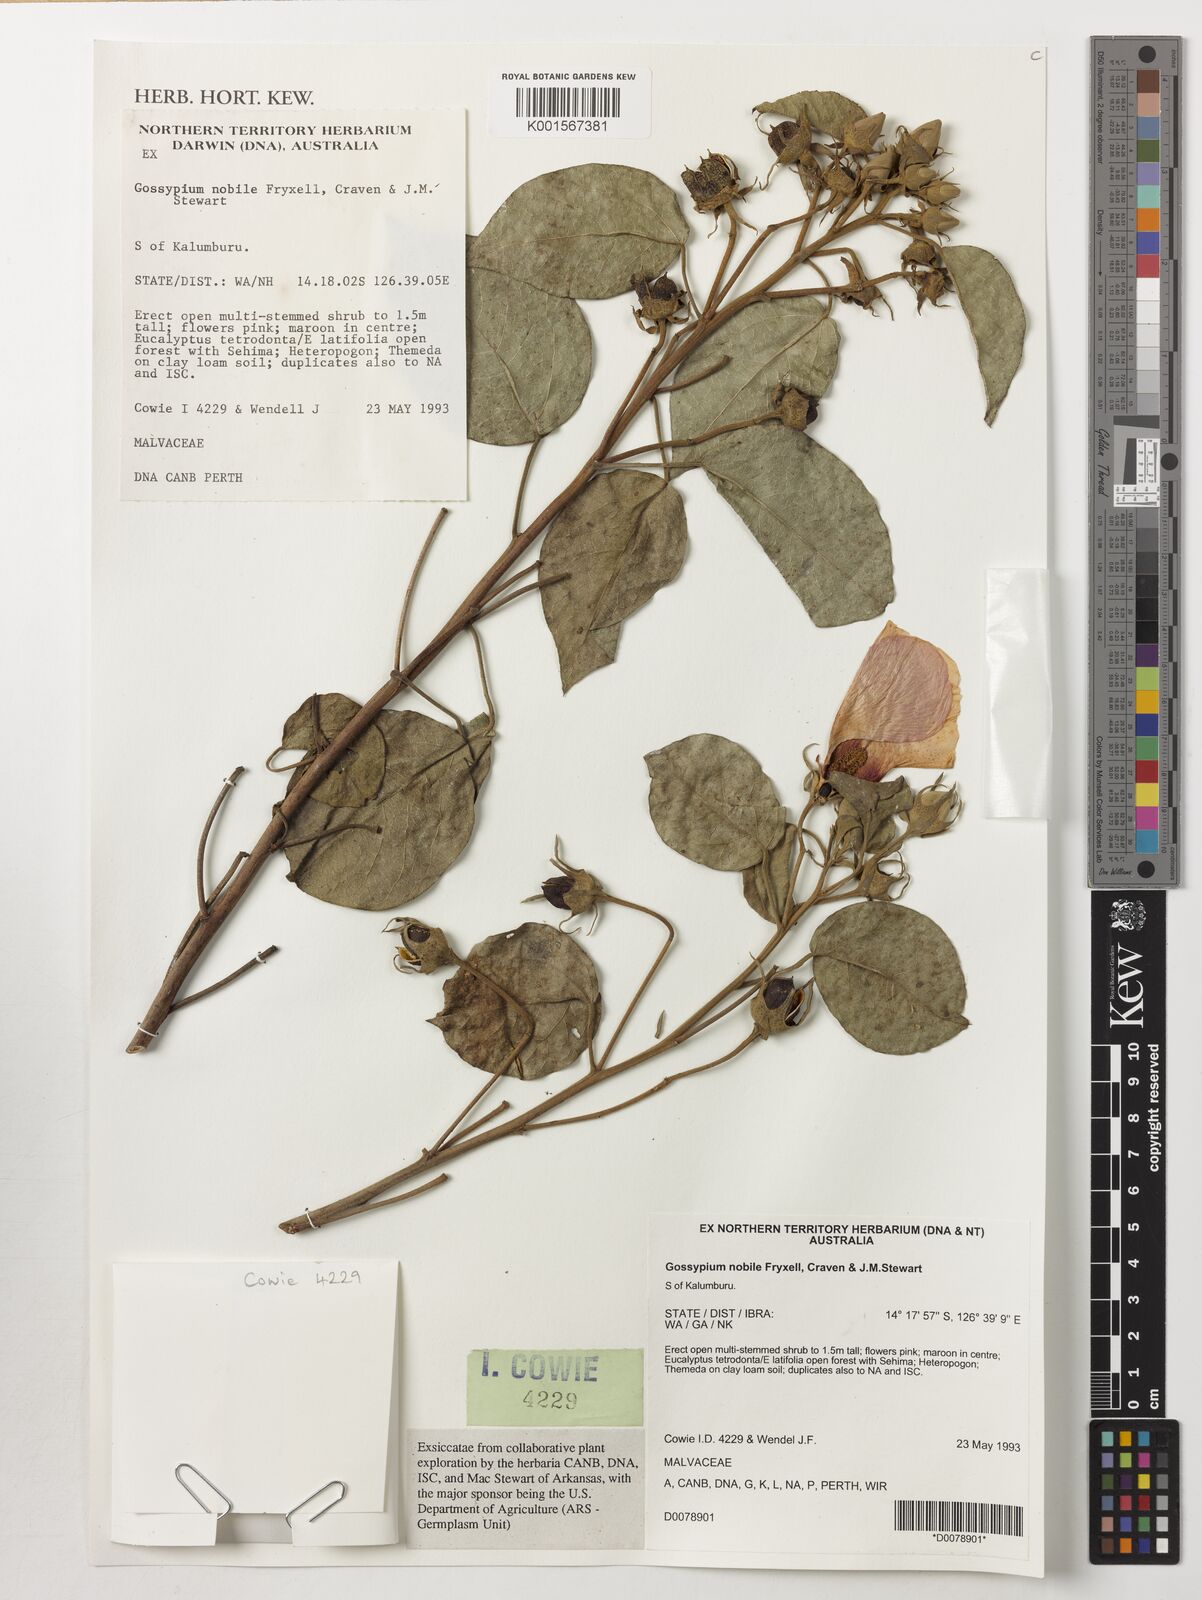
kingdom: Plantae
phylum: Tracheophyta
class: Magnoliopsida
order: Malvales
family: Malvaceae
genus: Gossypium
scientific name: Gossypium nobile
